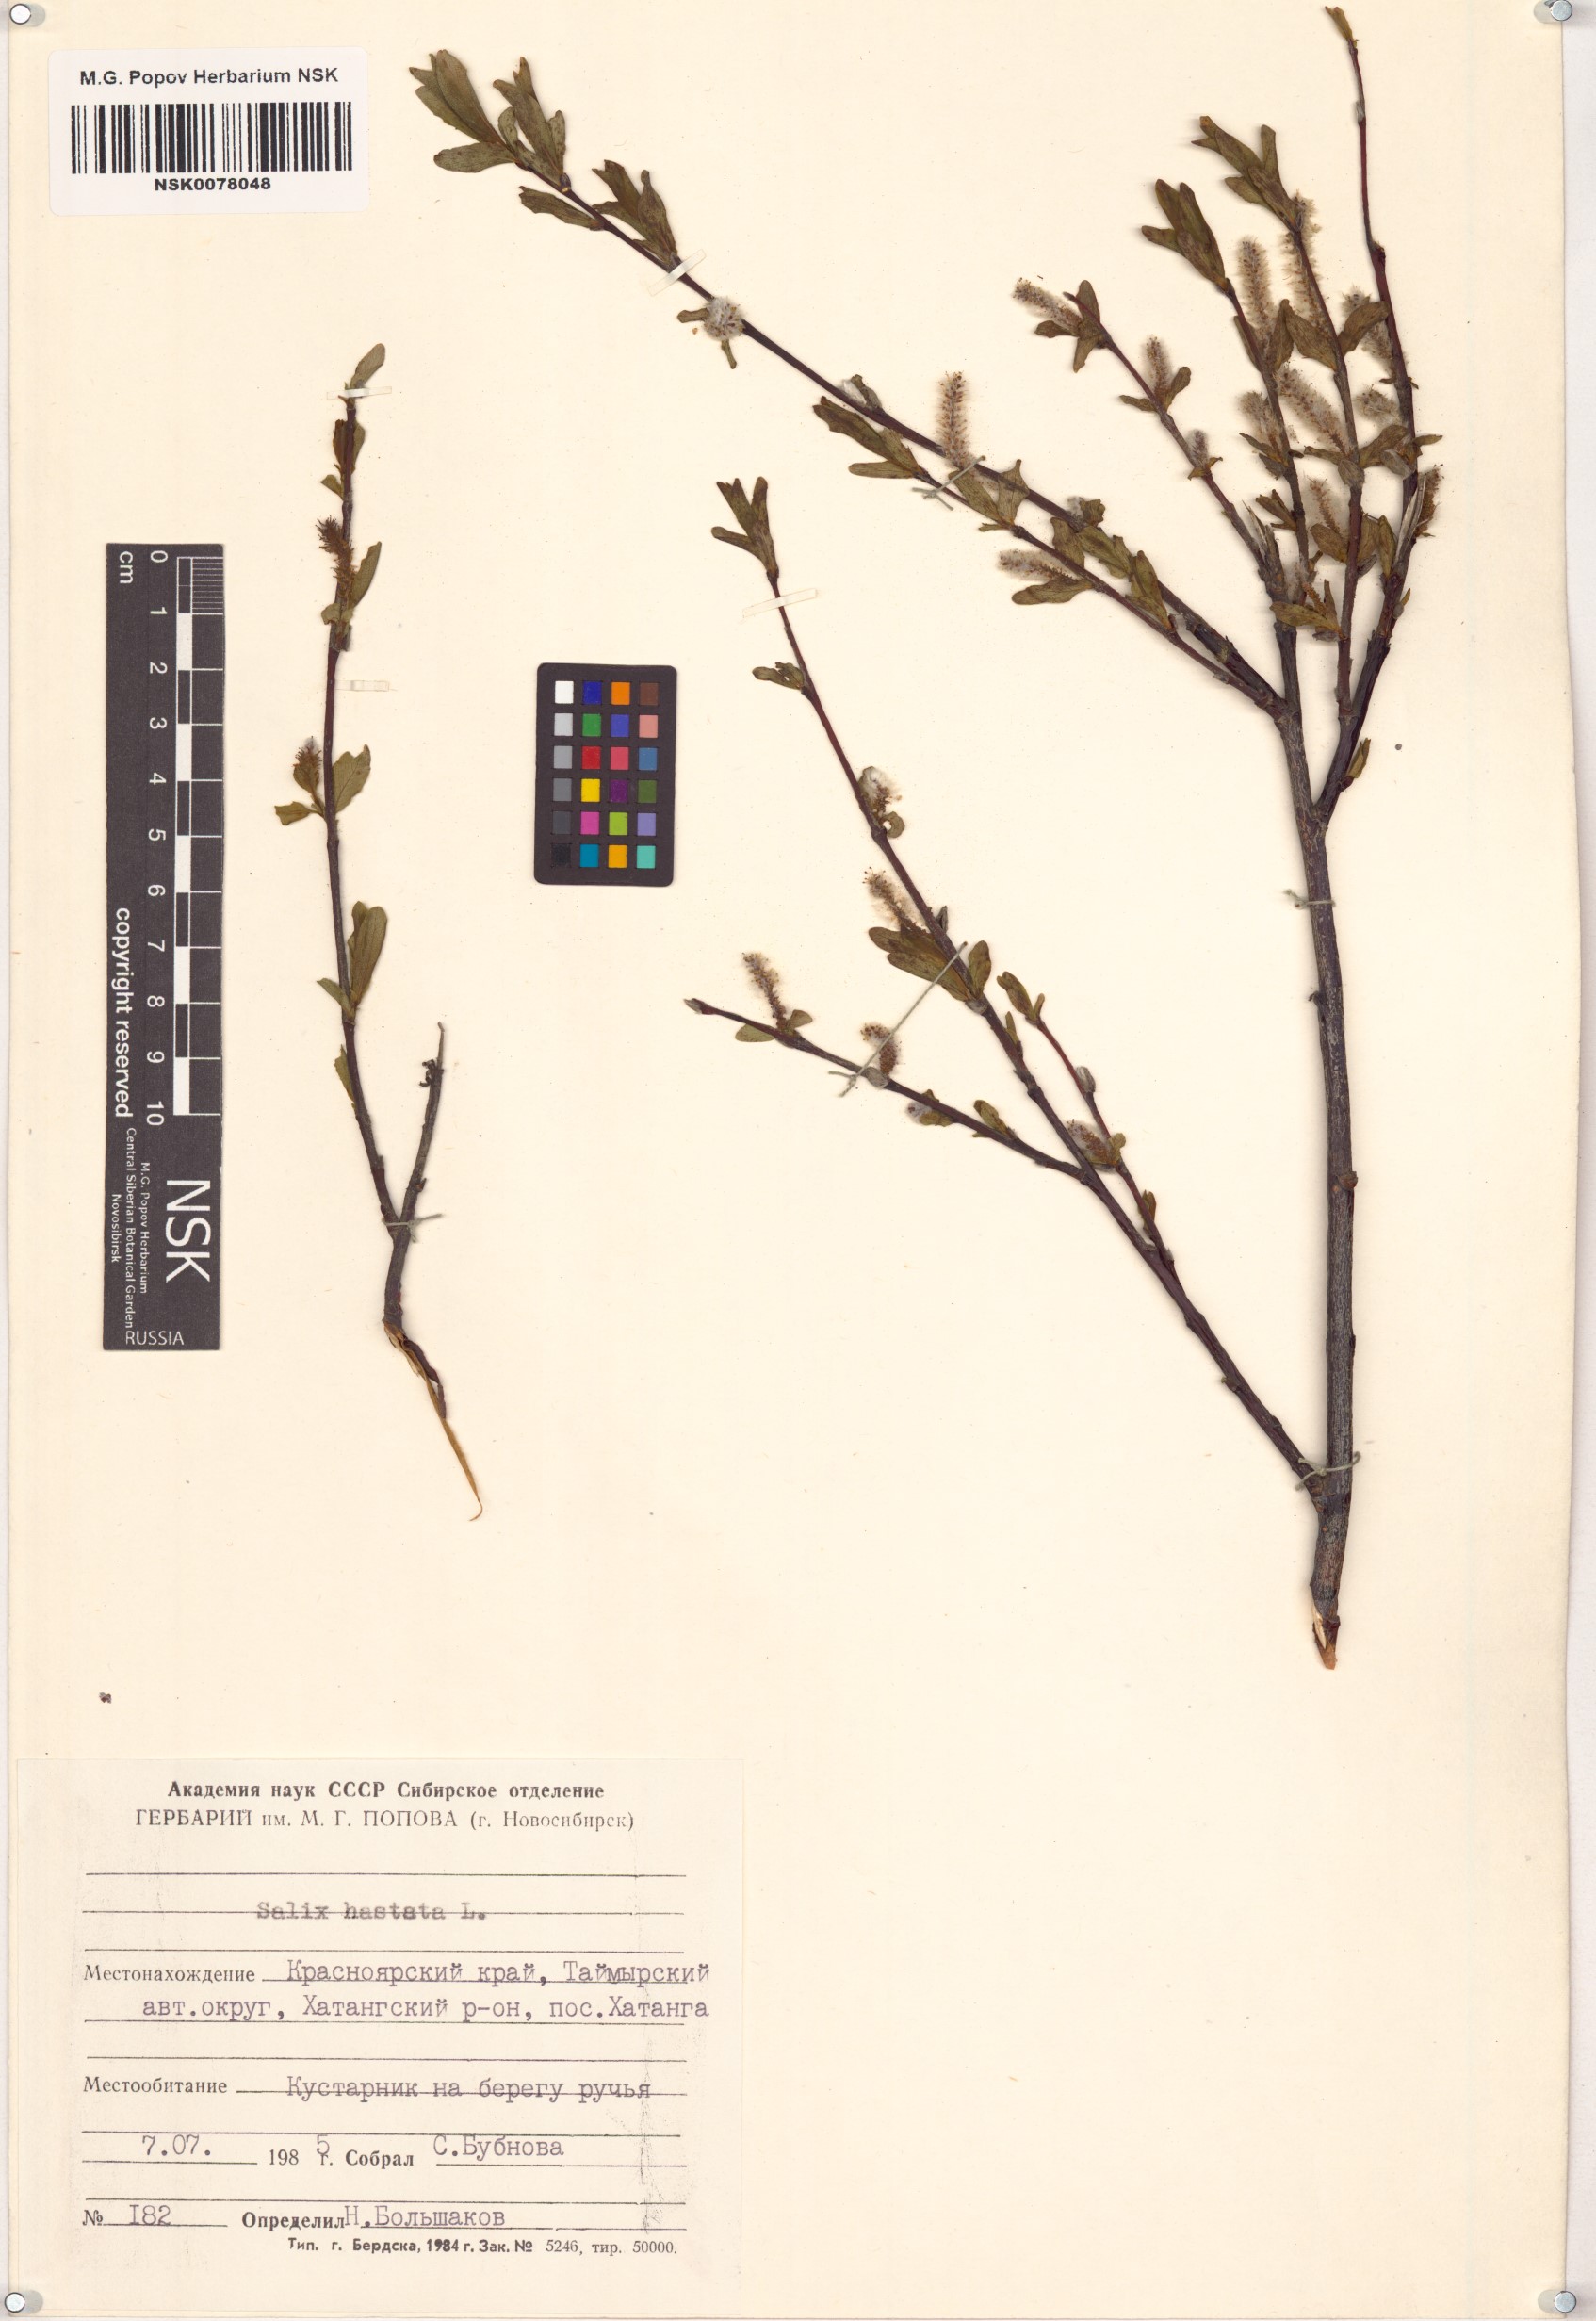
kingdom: Plantae
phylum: Tracheophyta
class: Magnoliopsida
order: Malpighiales
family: Salicaceae
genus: Salix
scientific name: Salix hastata
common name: Halberd willow
